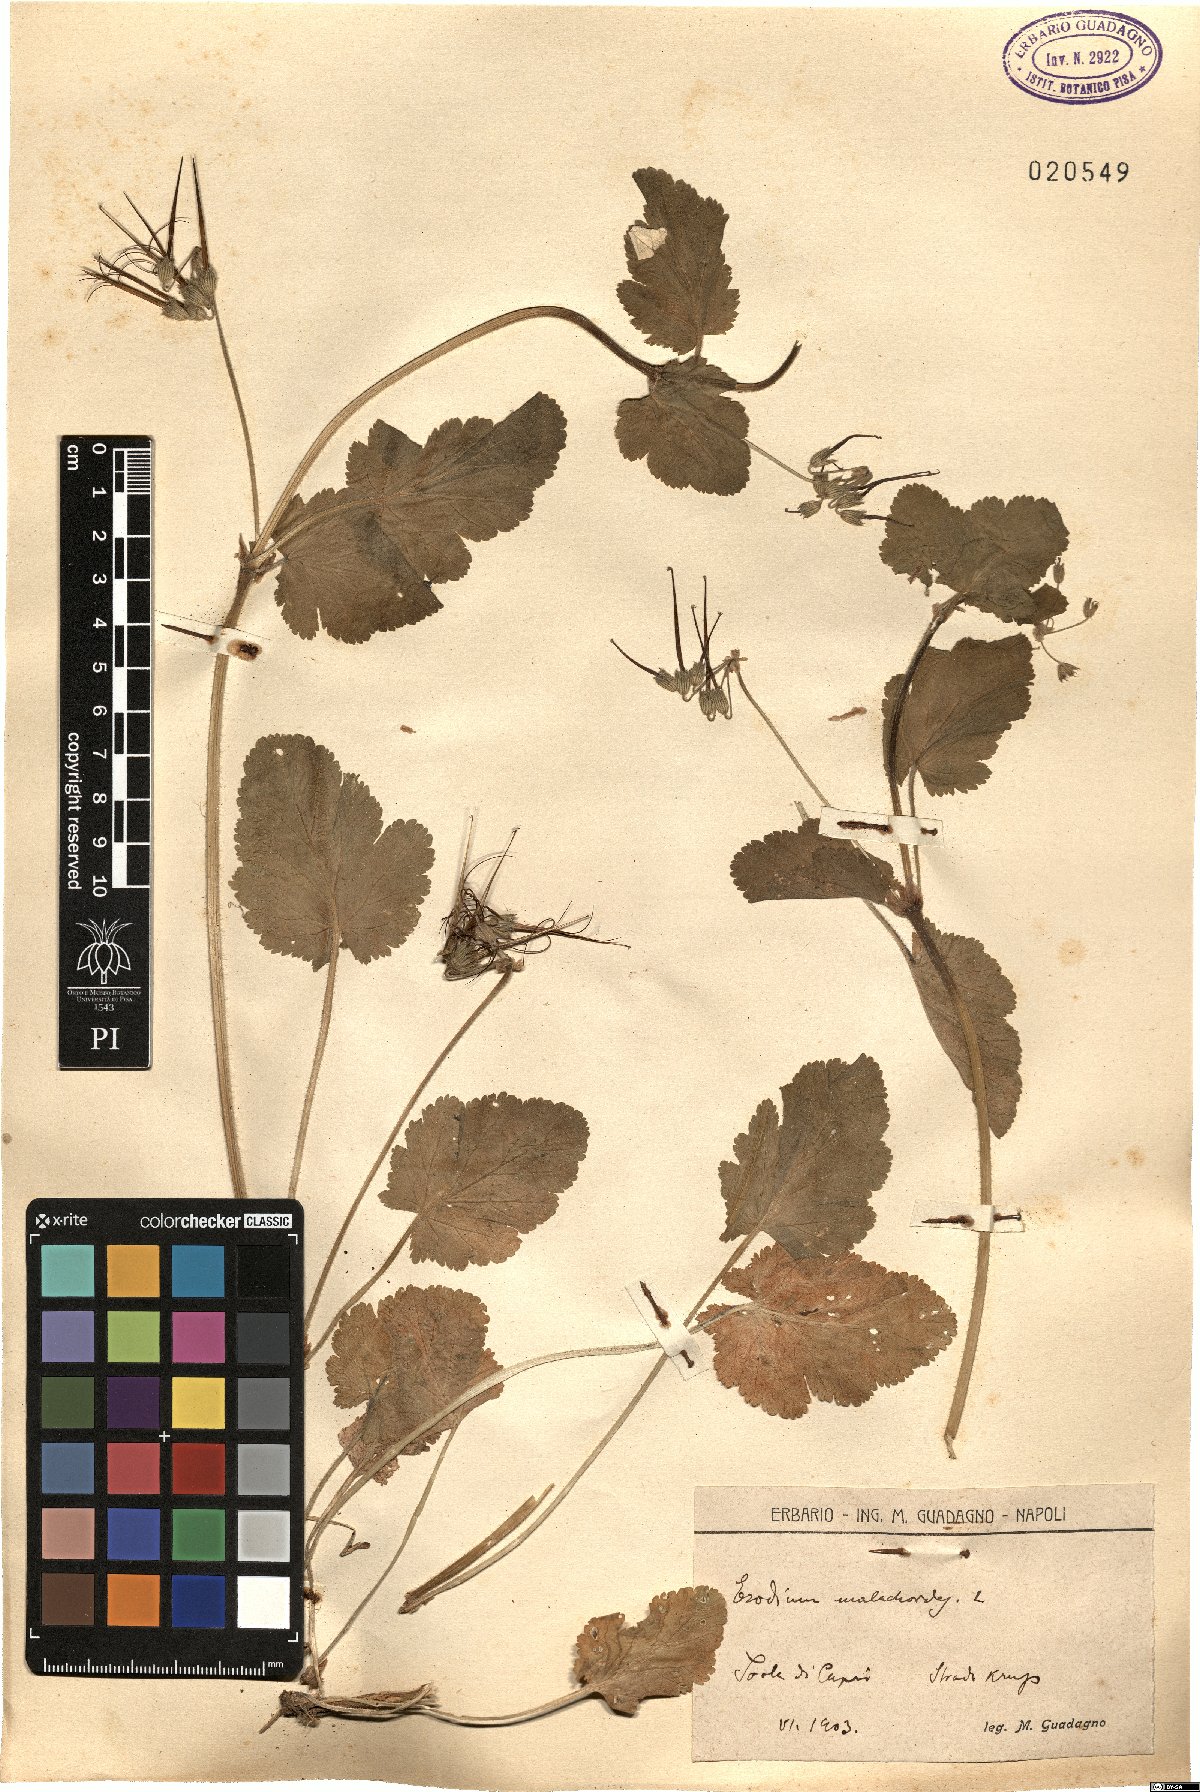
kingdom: Plantae
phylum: Tracheophyta
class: Magnoliopsida
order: Geraniales
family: Geraniaceae
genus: Erodium
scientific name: Erodium malacoides
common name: Soft stork's-bill
